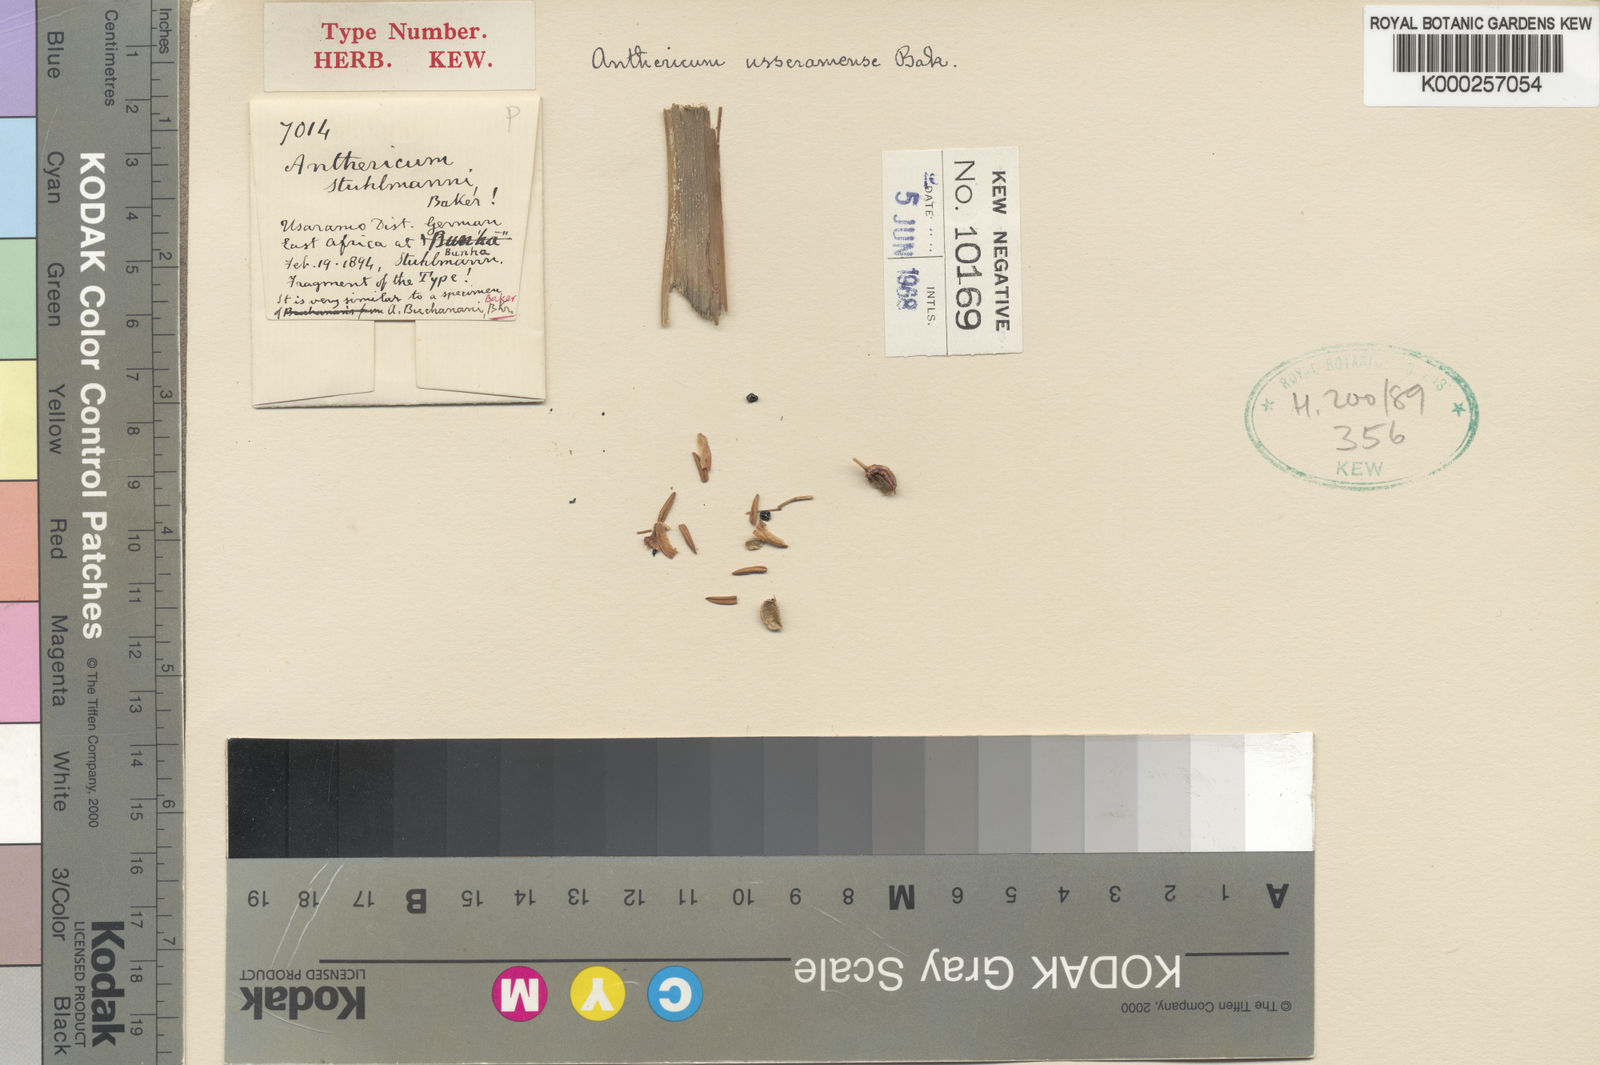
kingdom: Plantae
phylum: Tracheophyta
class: Liliopsida
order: Asparagales
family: Asparagaceae
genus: Chlorophytum
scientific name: Chlorophytum sphacelatum
